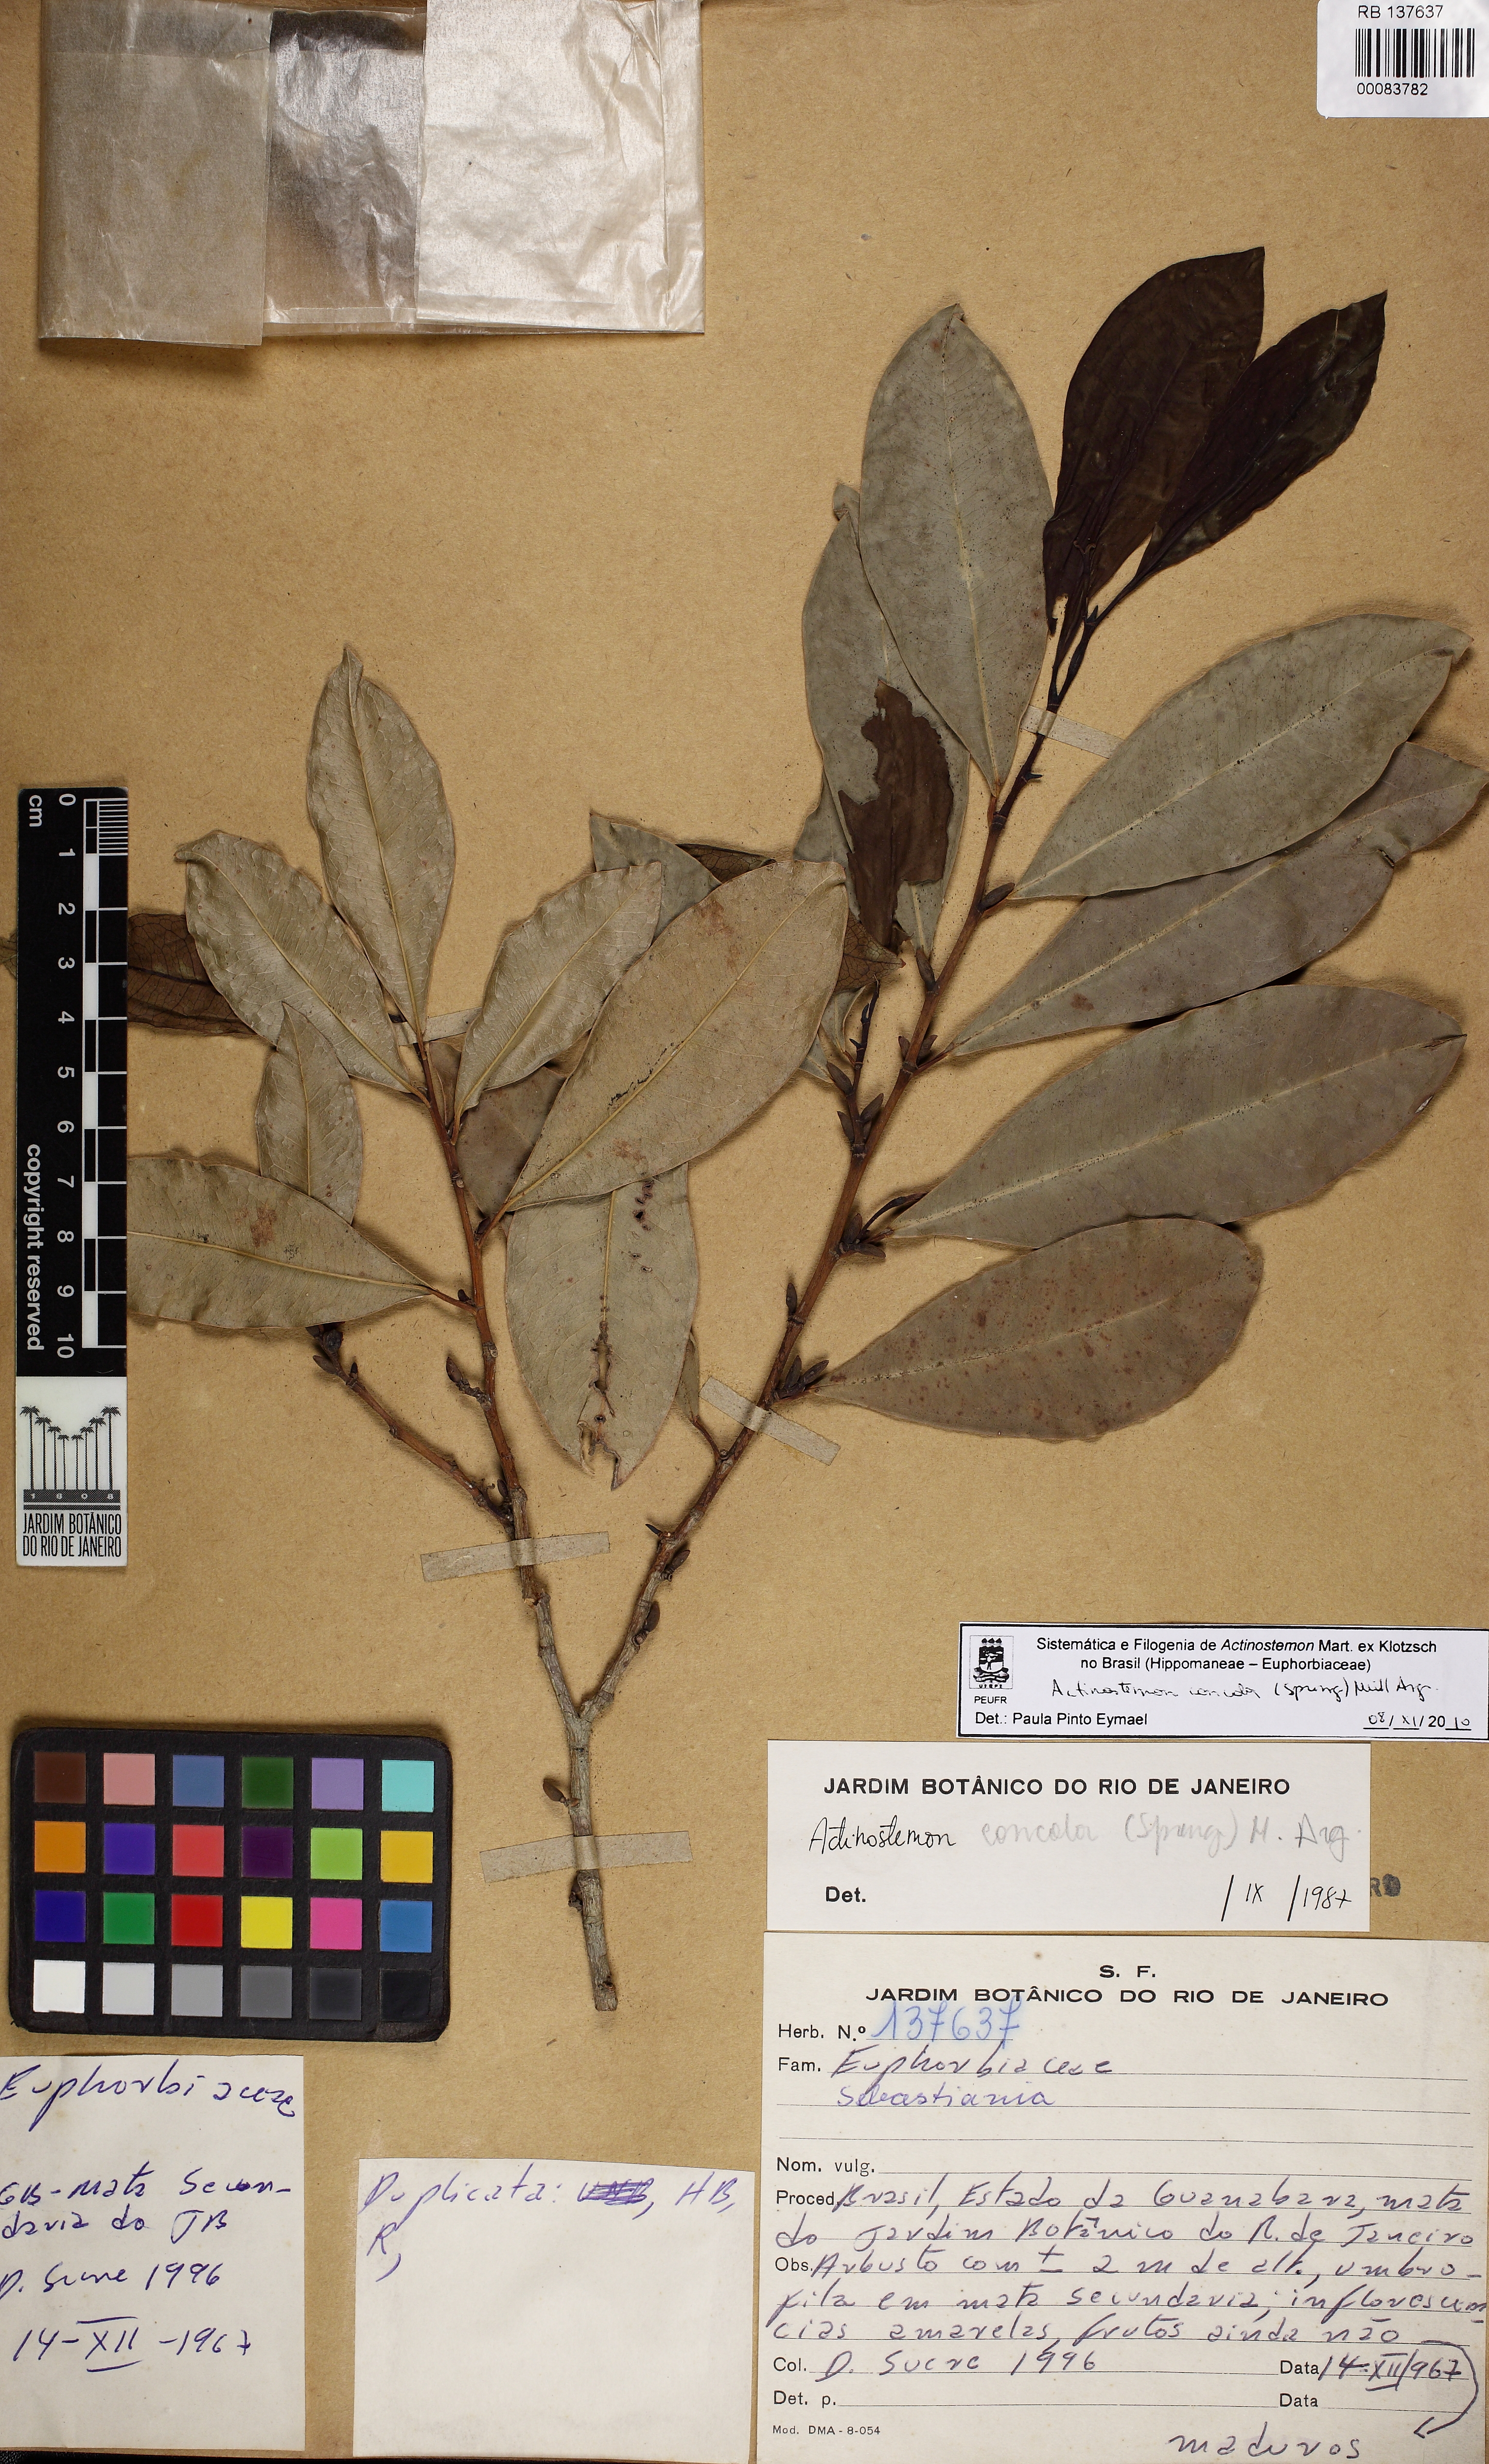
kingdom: Plantae
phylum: Tracheophyta
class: Magnoliopsida
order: Malpighiales
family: Euphorbiaceae
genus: Actinostemon
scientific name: Actinostemon concolor
